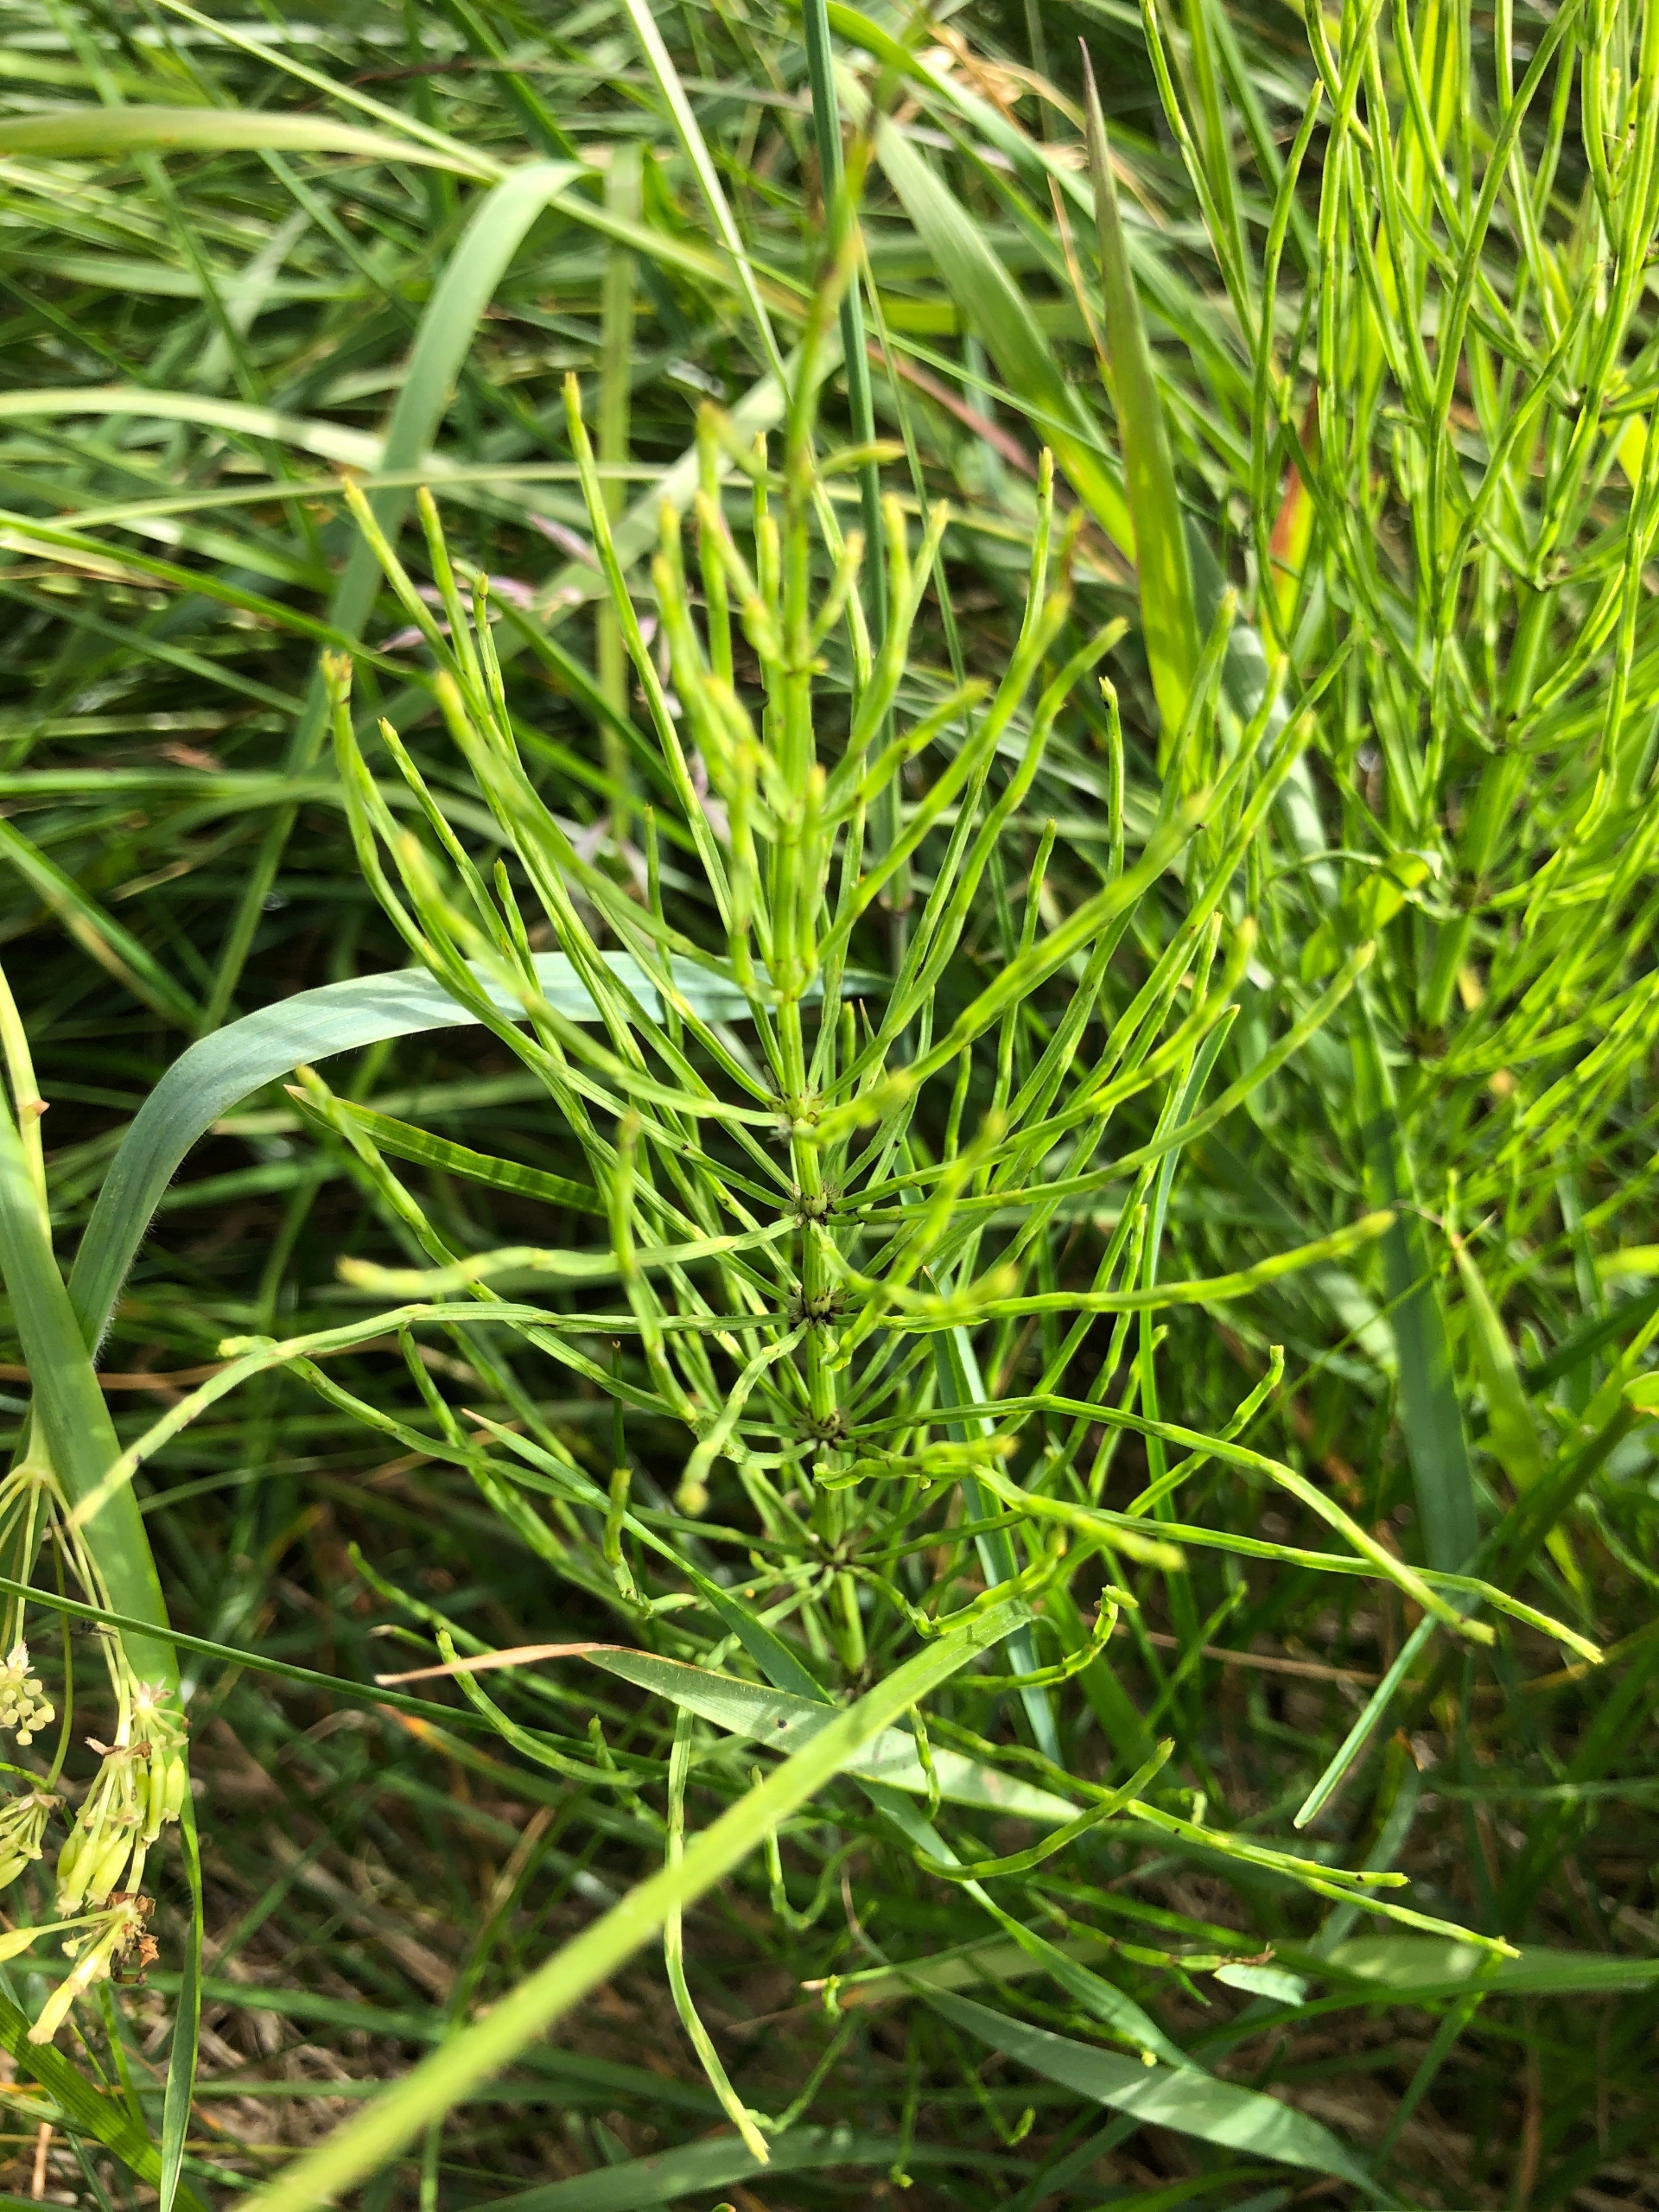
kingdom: Plantae
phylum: Tracheophyta
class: Polypodiopsida
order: Equisetales
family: Equisetaceae
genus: Equisetum
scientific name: Equisetum arvense
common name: Ager-padderok
